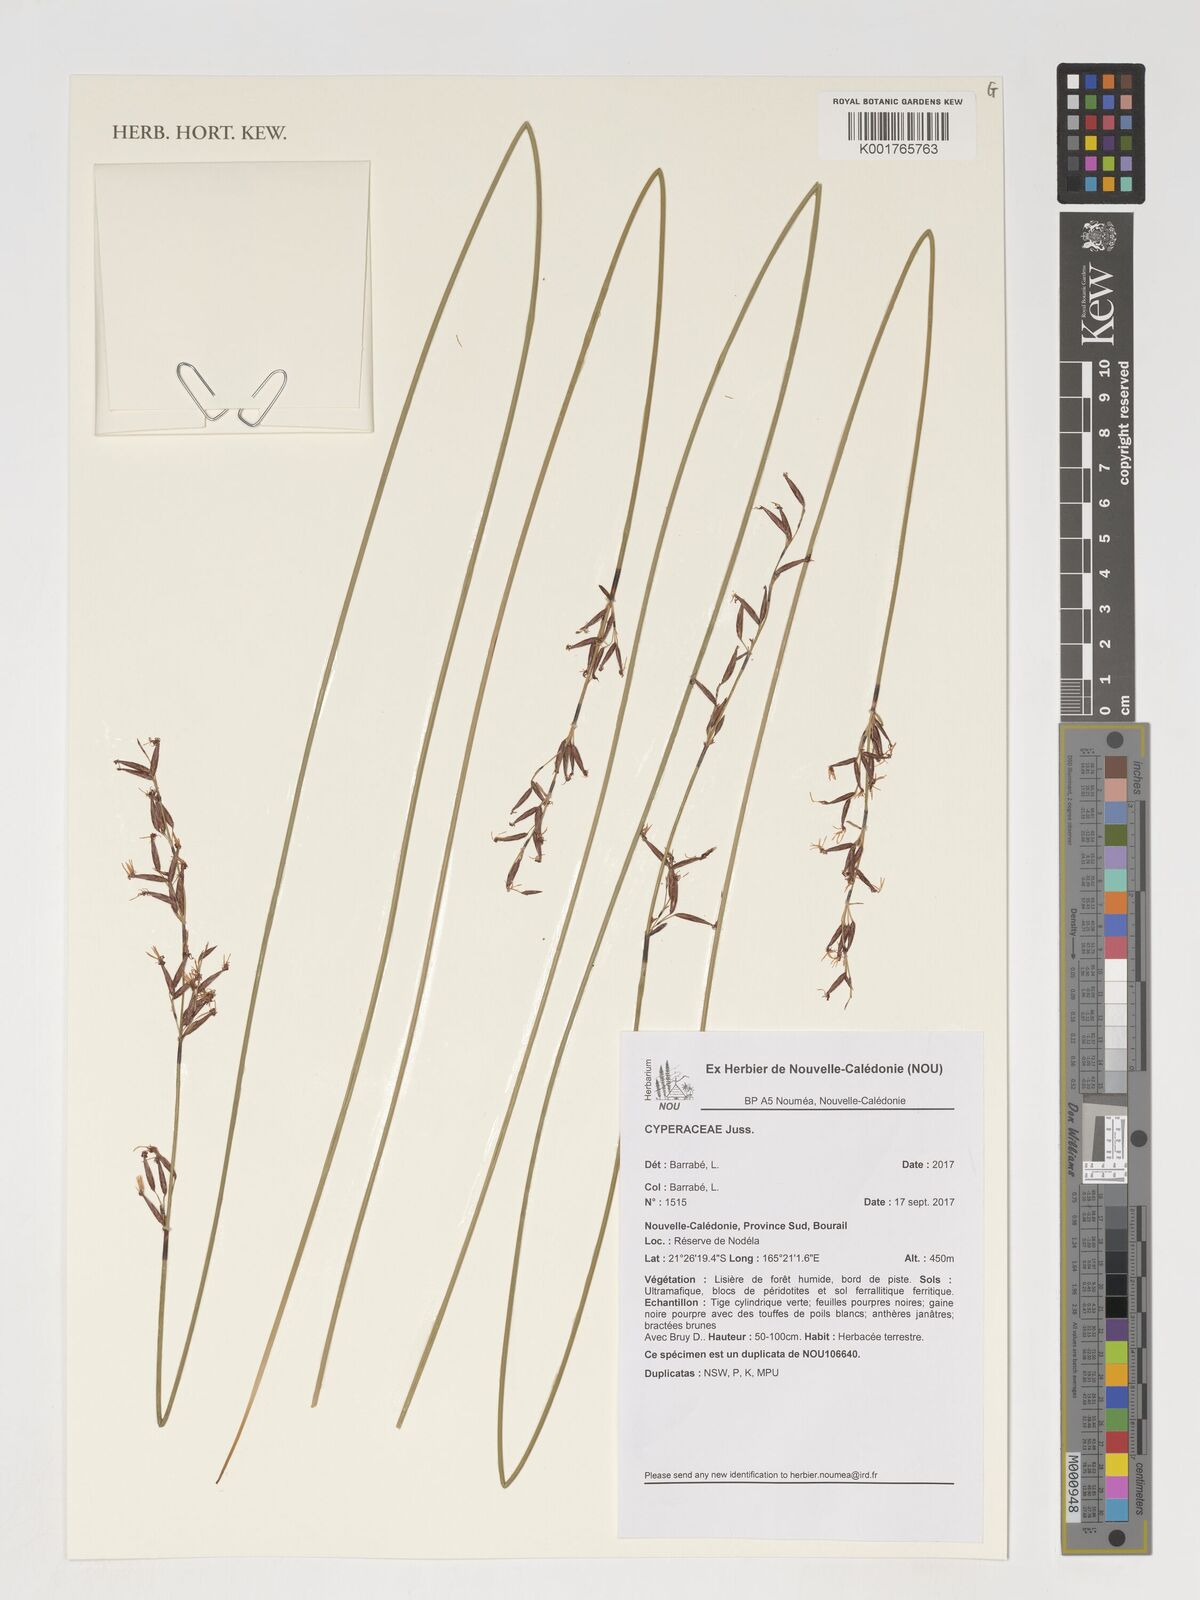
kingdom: Plantae
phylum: Tracheophyta
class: Liliopsida
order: Poales
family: Cyperaceae
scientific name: Cyperaceae
